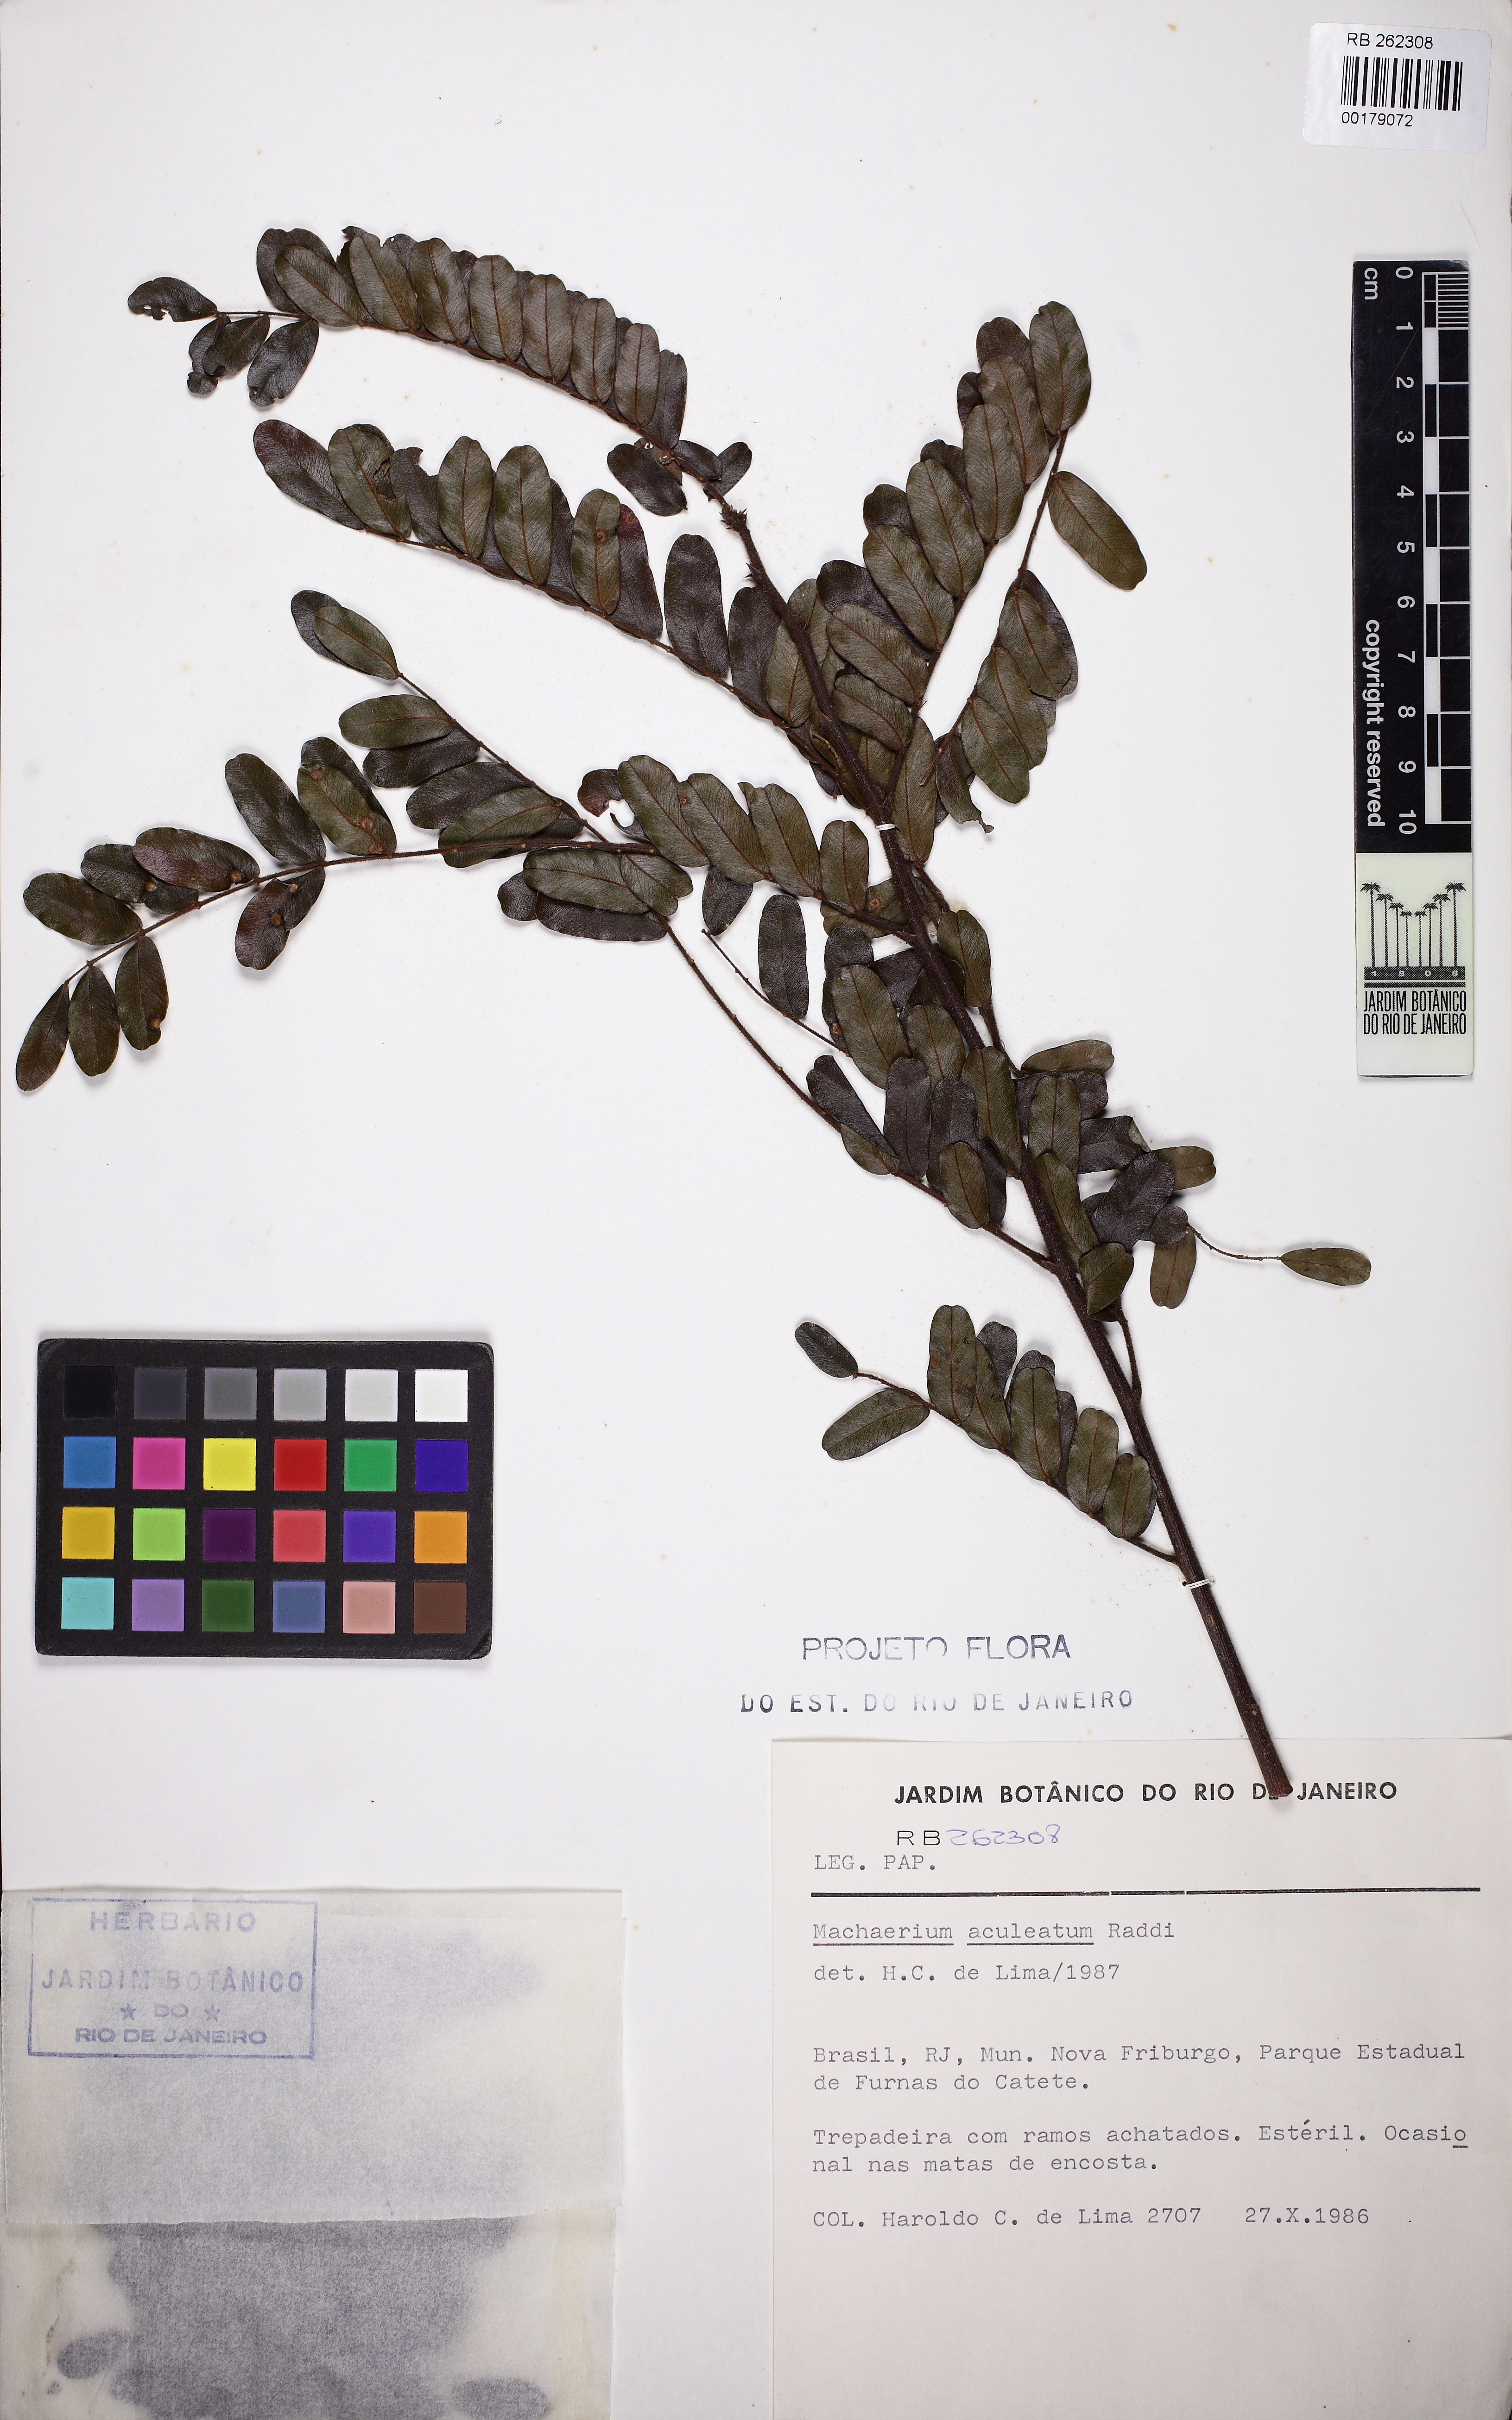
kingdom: Plantae
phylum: Tracheophyta
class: Magnoliopsida
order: Fabales
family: Fabaceae
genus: Machaerium
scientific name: Machaerium aculeatum
